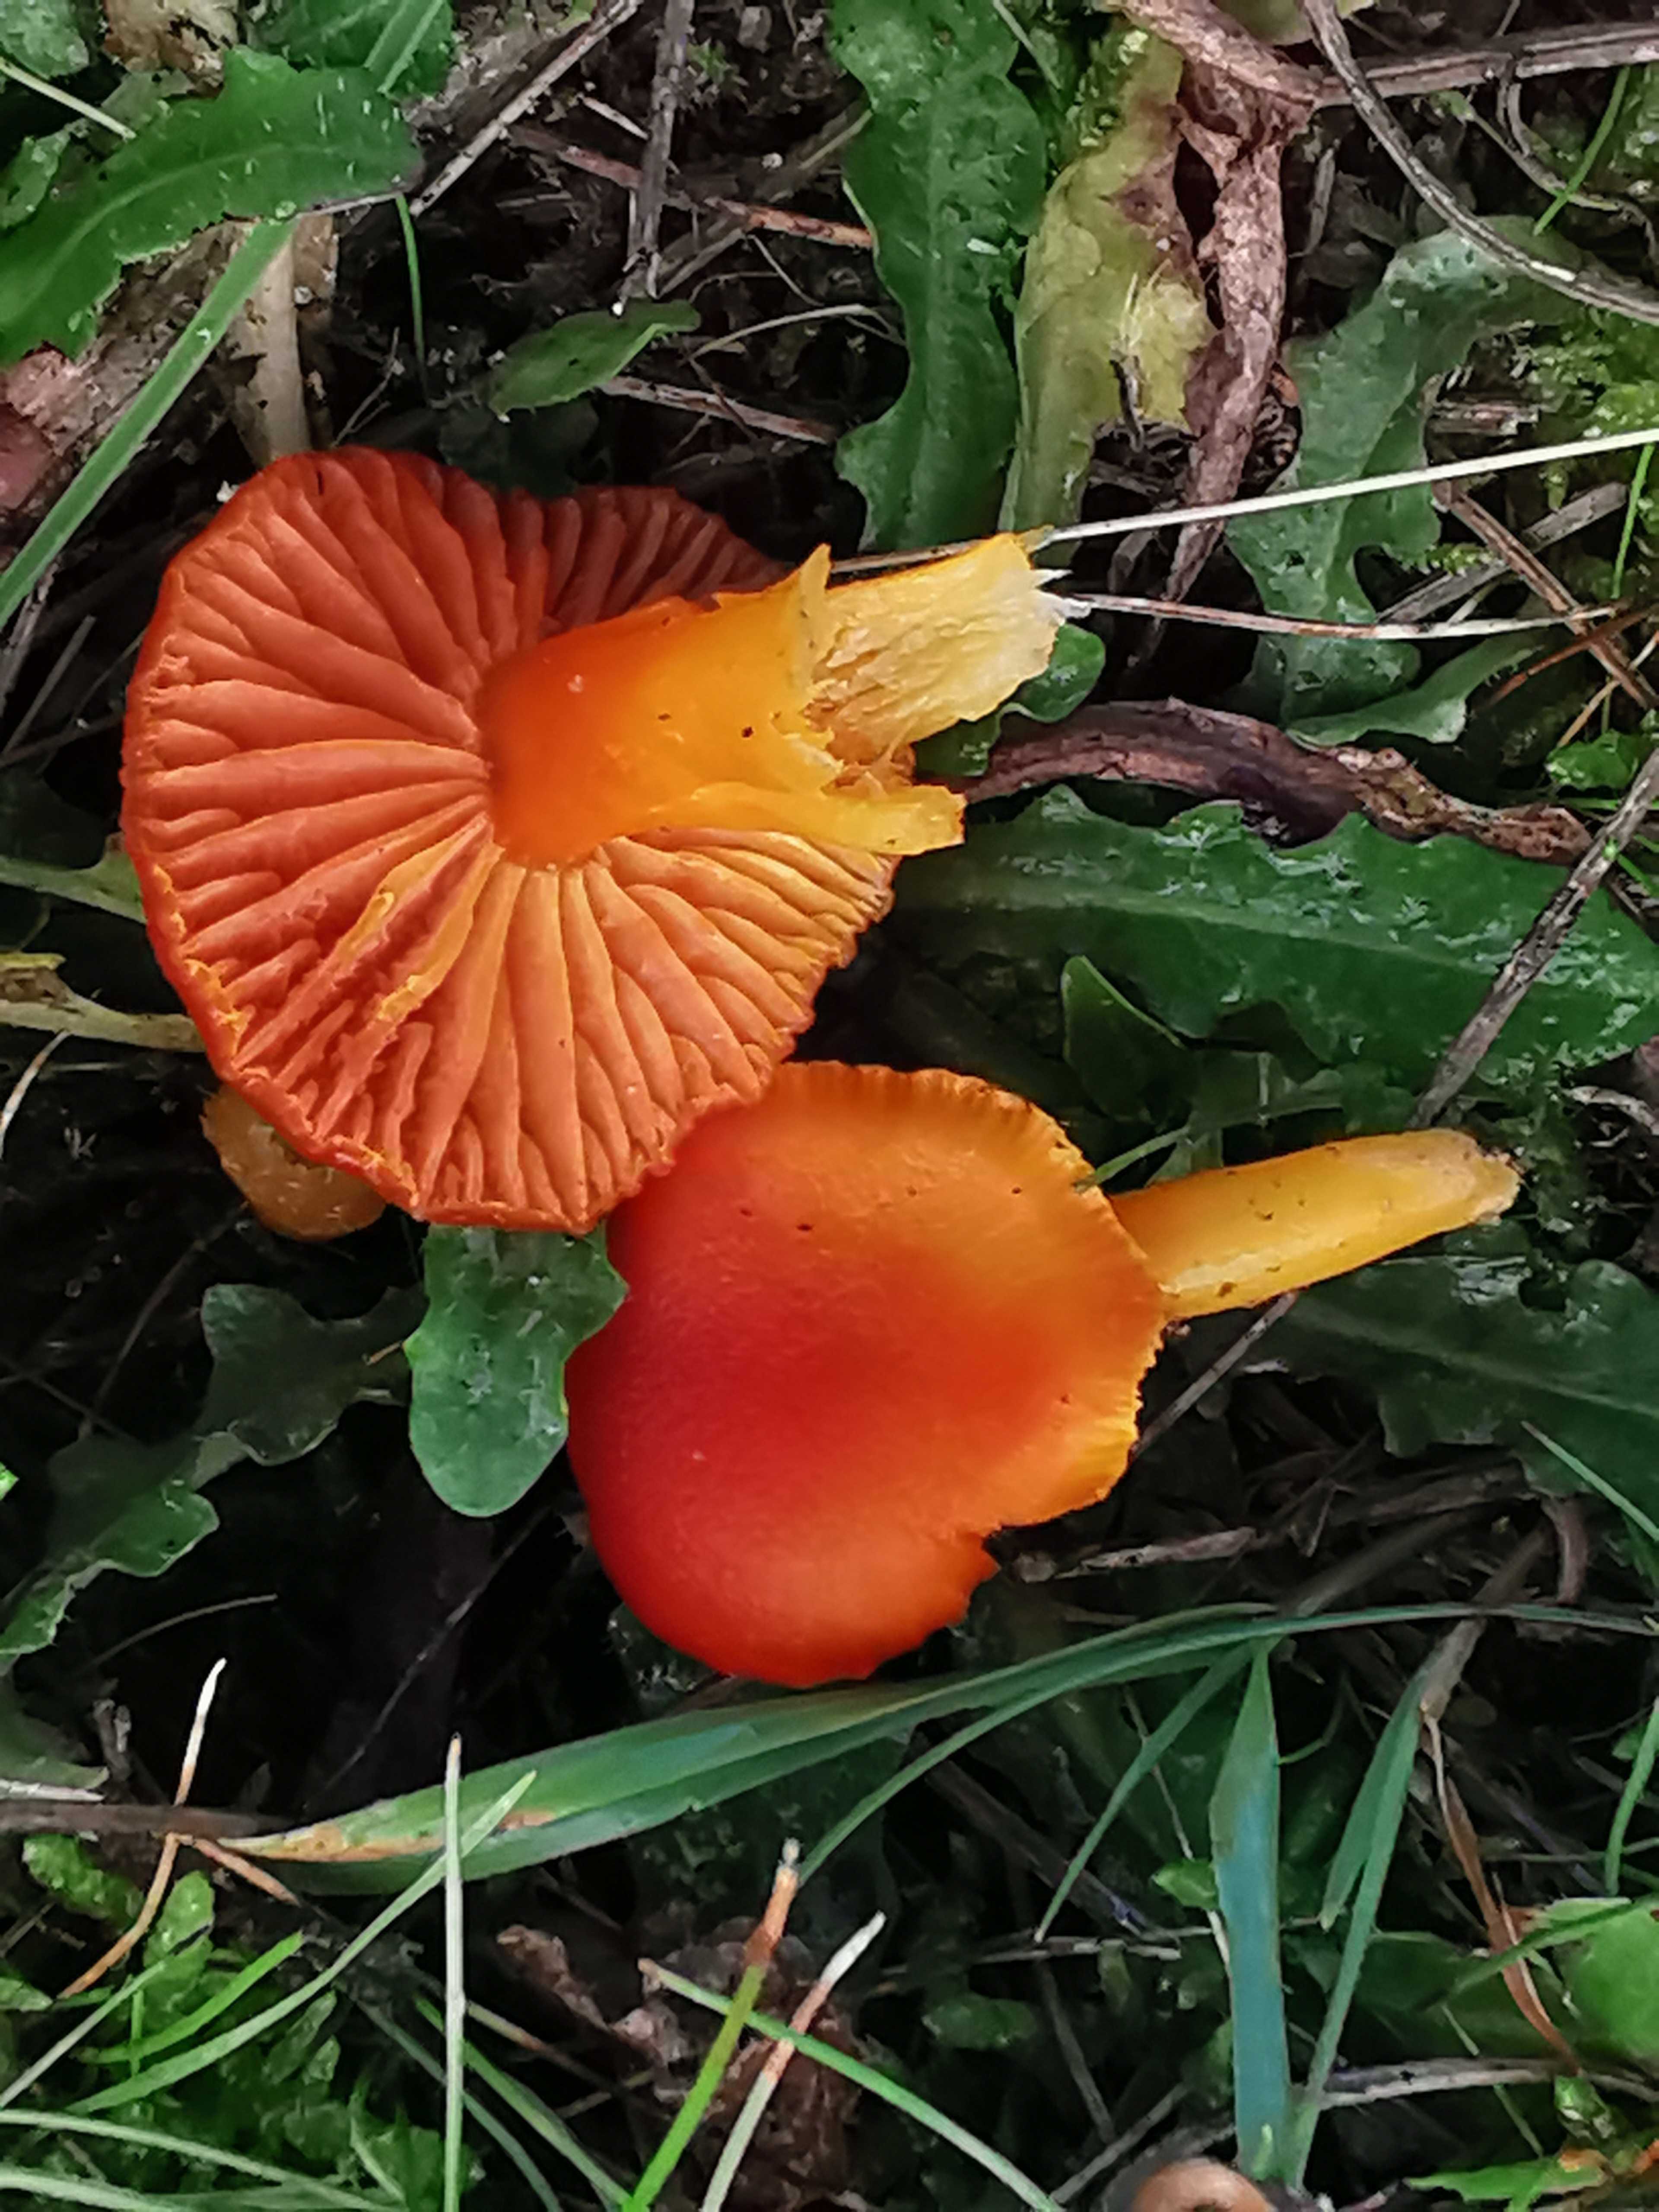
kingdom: Fungi
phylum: Basidiomycota
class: Agaricomycetes
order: Agaricales
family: Hygrophoraceae
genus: Hygrocybe
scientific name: Hygrocybe miniata
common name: mønje-vokshat
